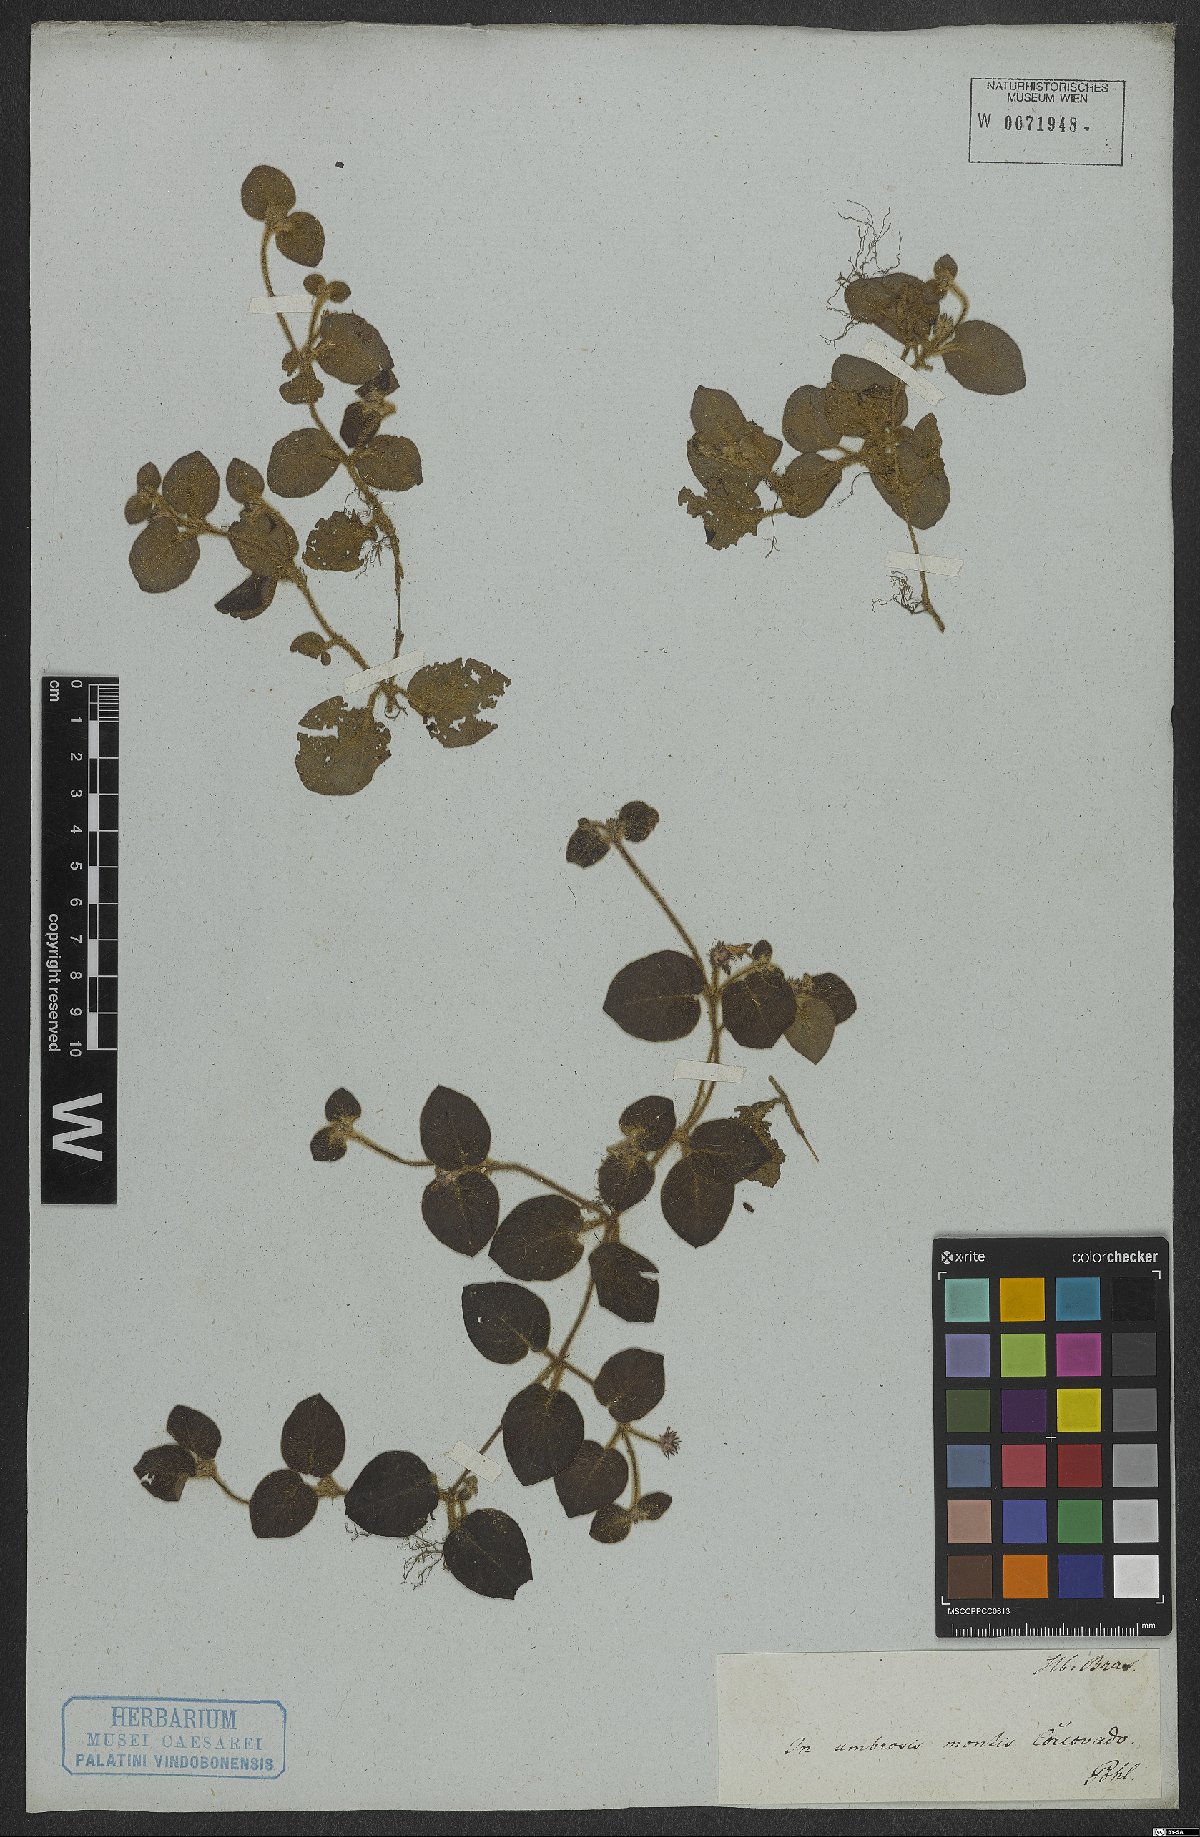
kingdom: Plantae
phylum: Tracheophyta
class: Magnoliopsida
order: Gentianales
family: Rubiaceae
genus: Coccocypselum
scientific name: Coccocypselum
